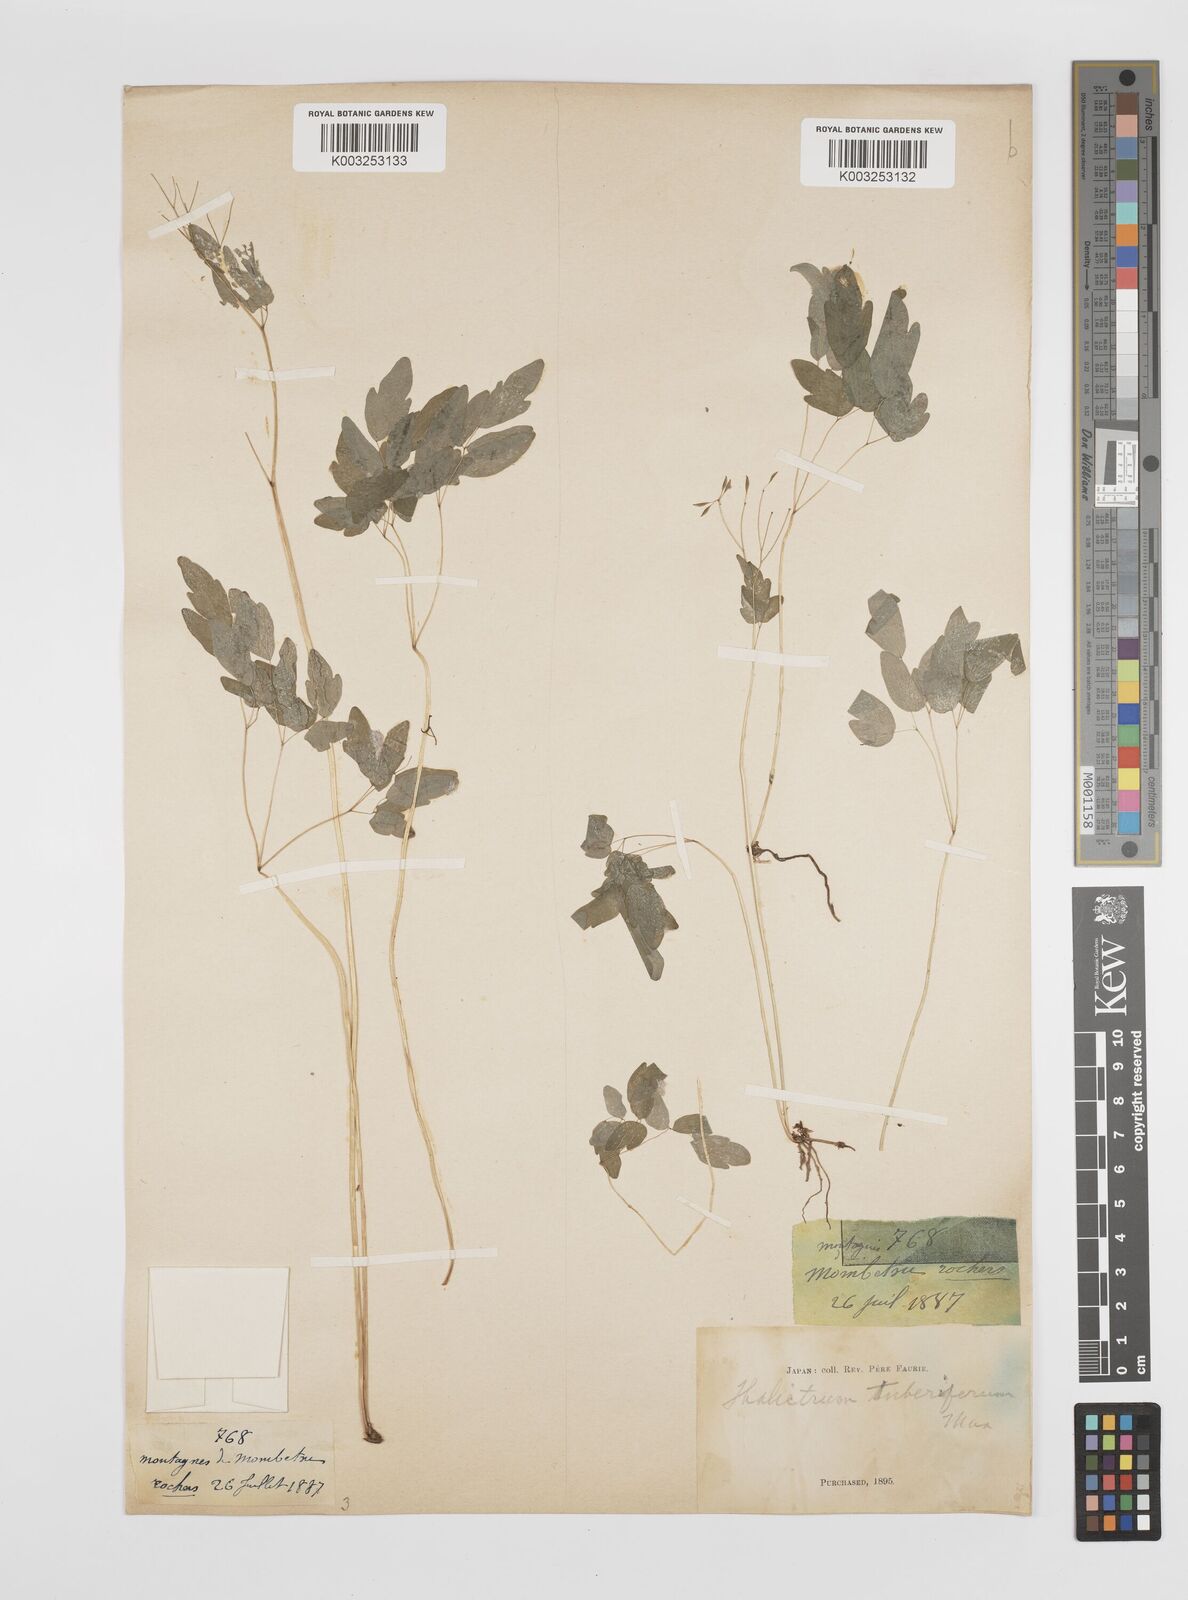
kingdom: Plantae
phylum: Tracheophyta
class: Magnoliopsida
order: Ranunculales
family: Ranunculaceae
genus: Thalictrum
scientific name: Thalictrum tuberiferum
